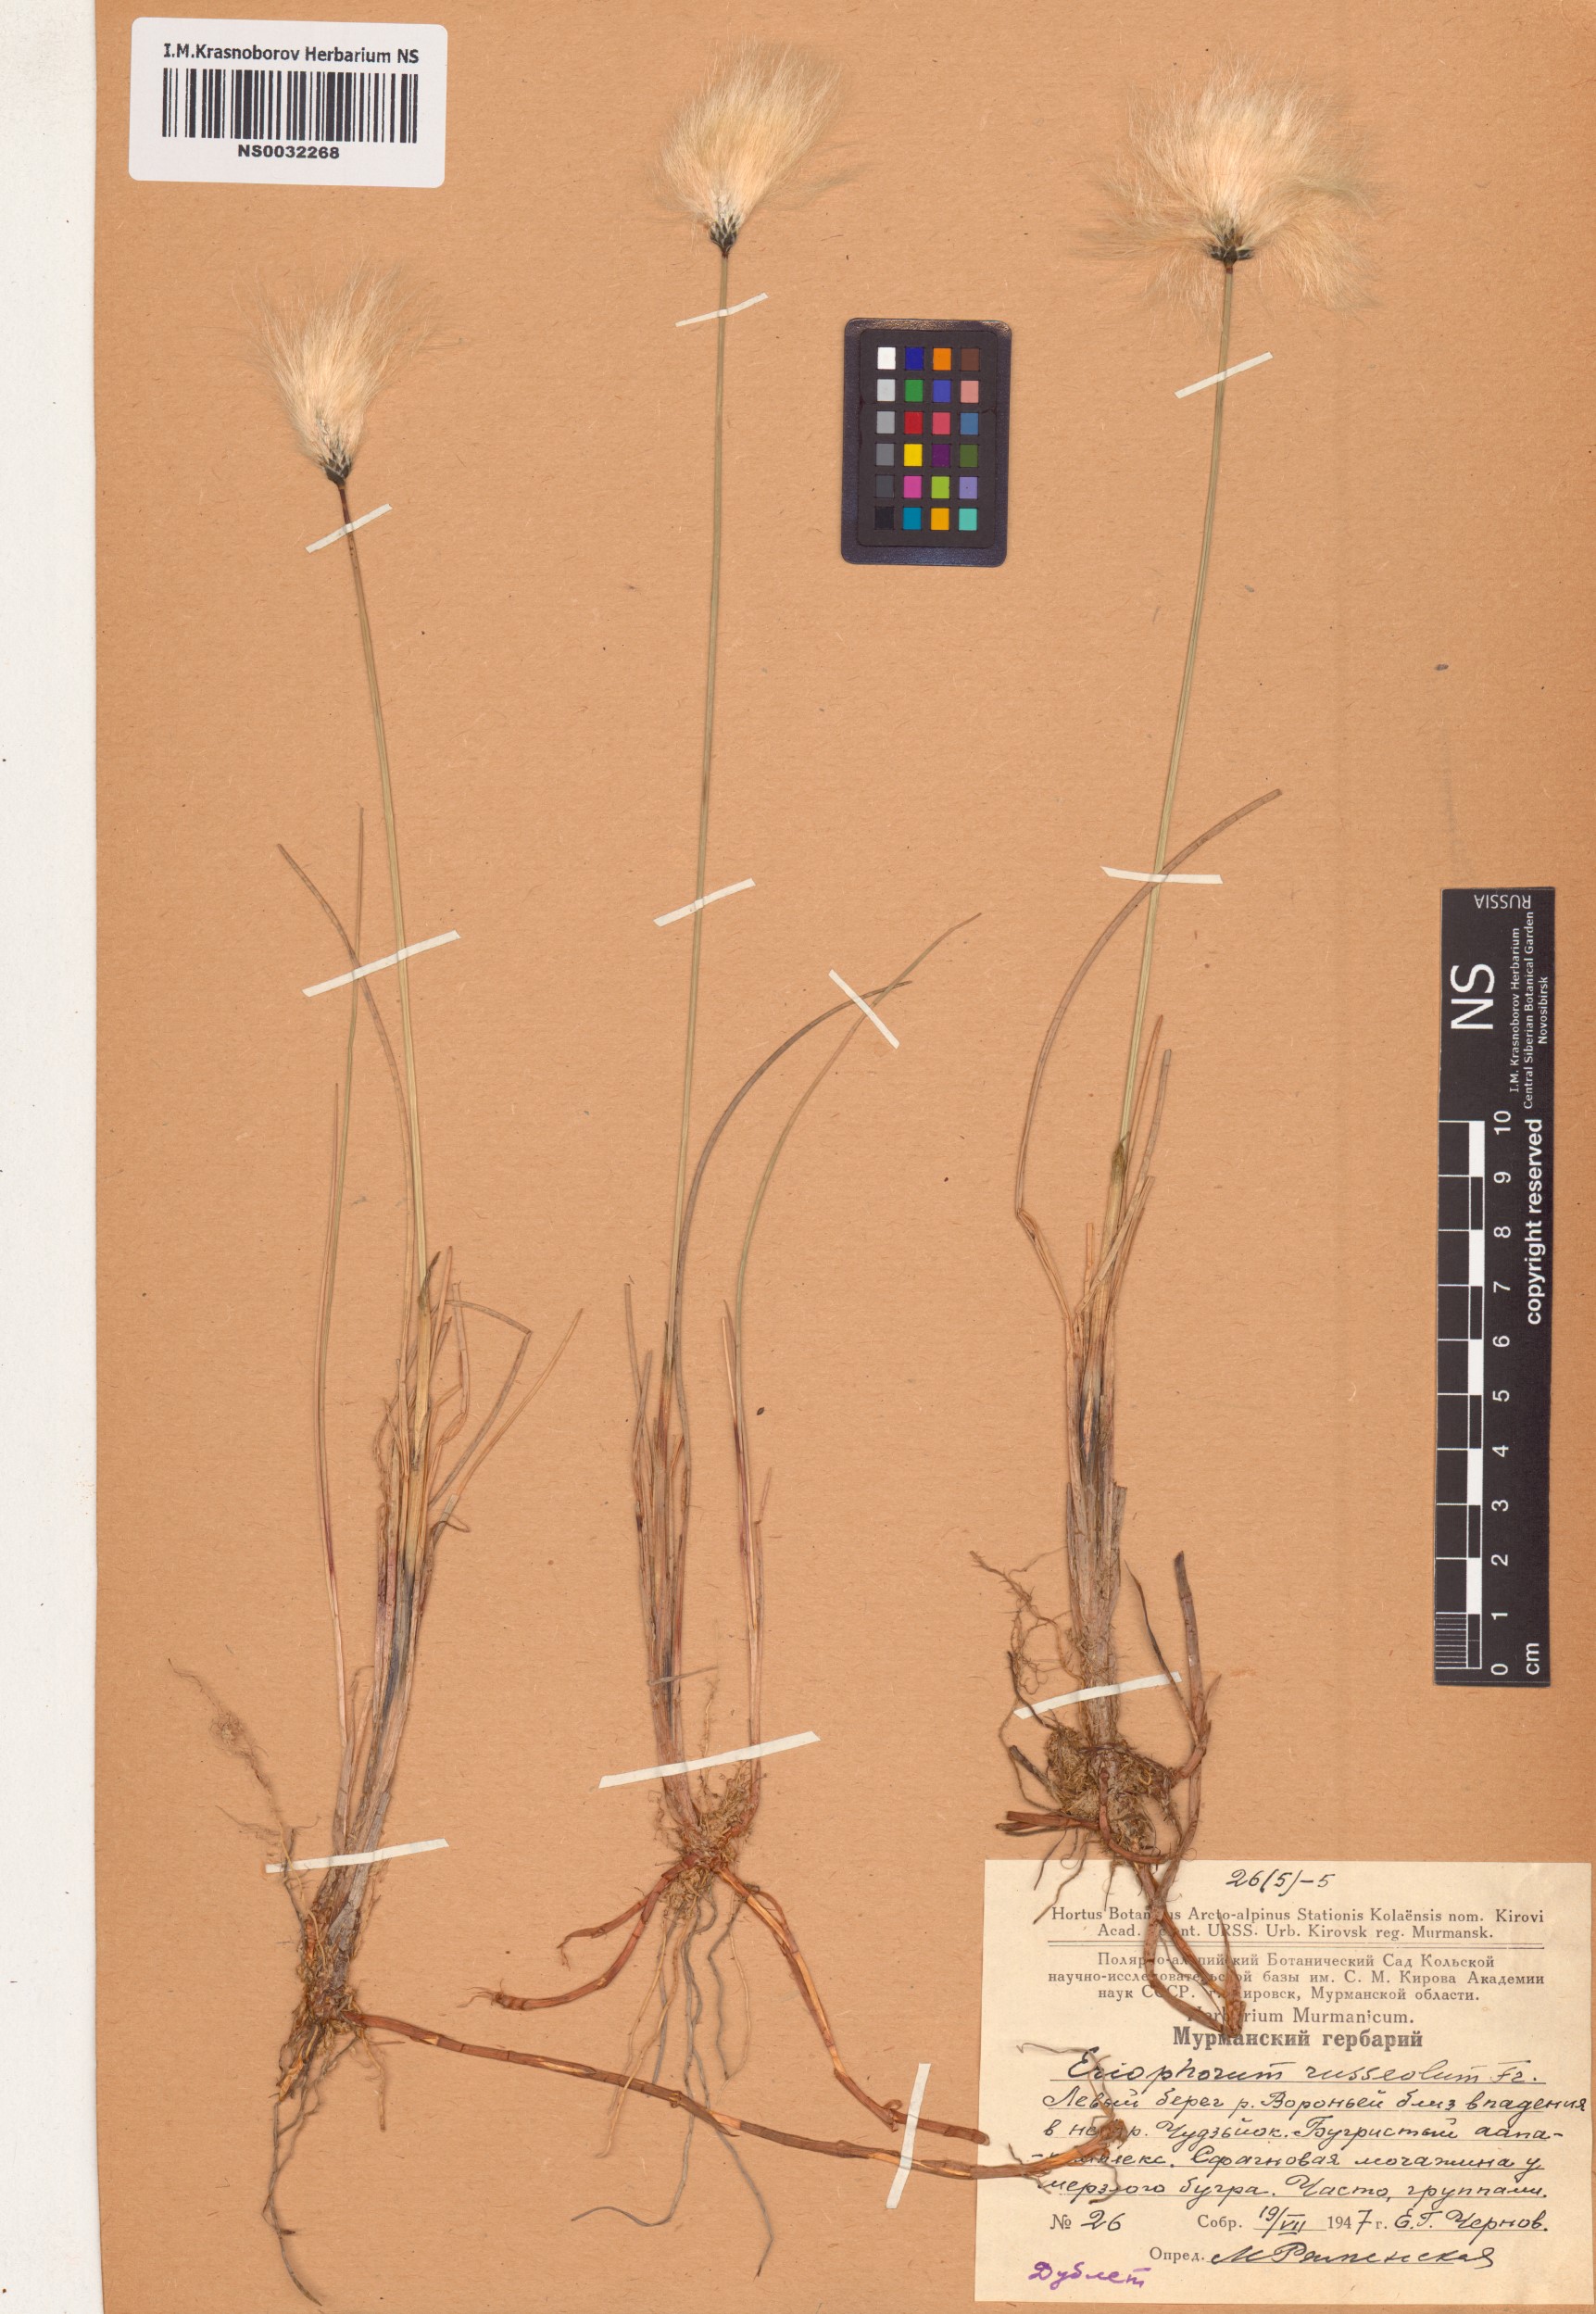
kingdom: Plantae
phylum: Tracheophyta
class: Liliopsida
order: Poales
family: Cyperaceae
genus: Eriophorum
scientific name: Eriophorum chamissonis
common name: Chamisso's cottongrass
